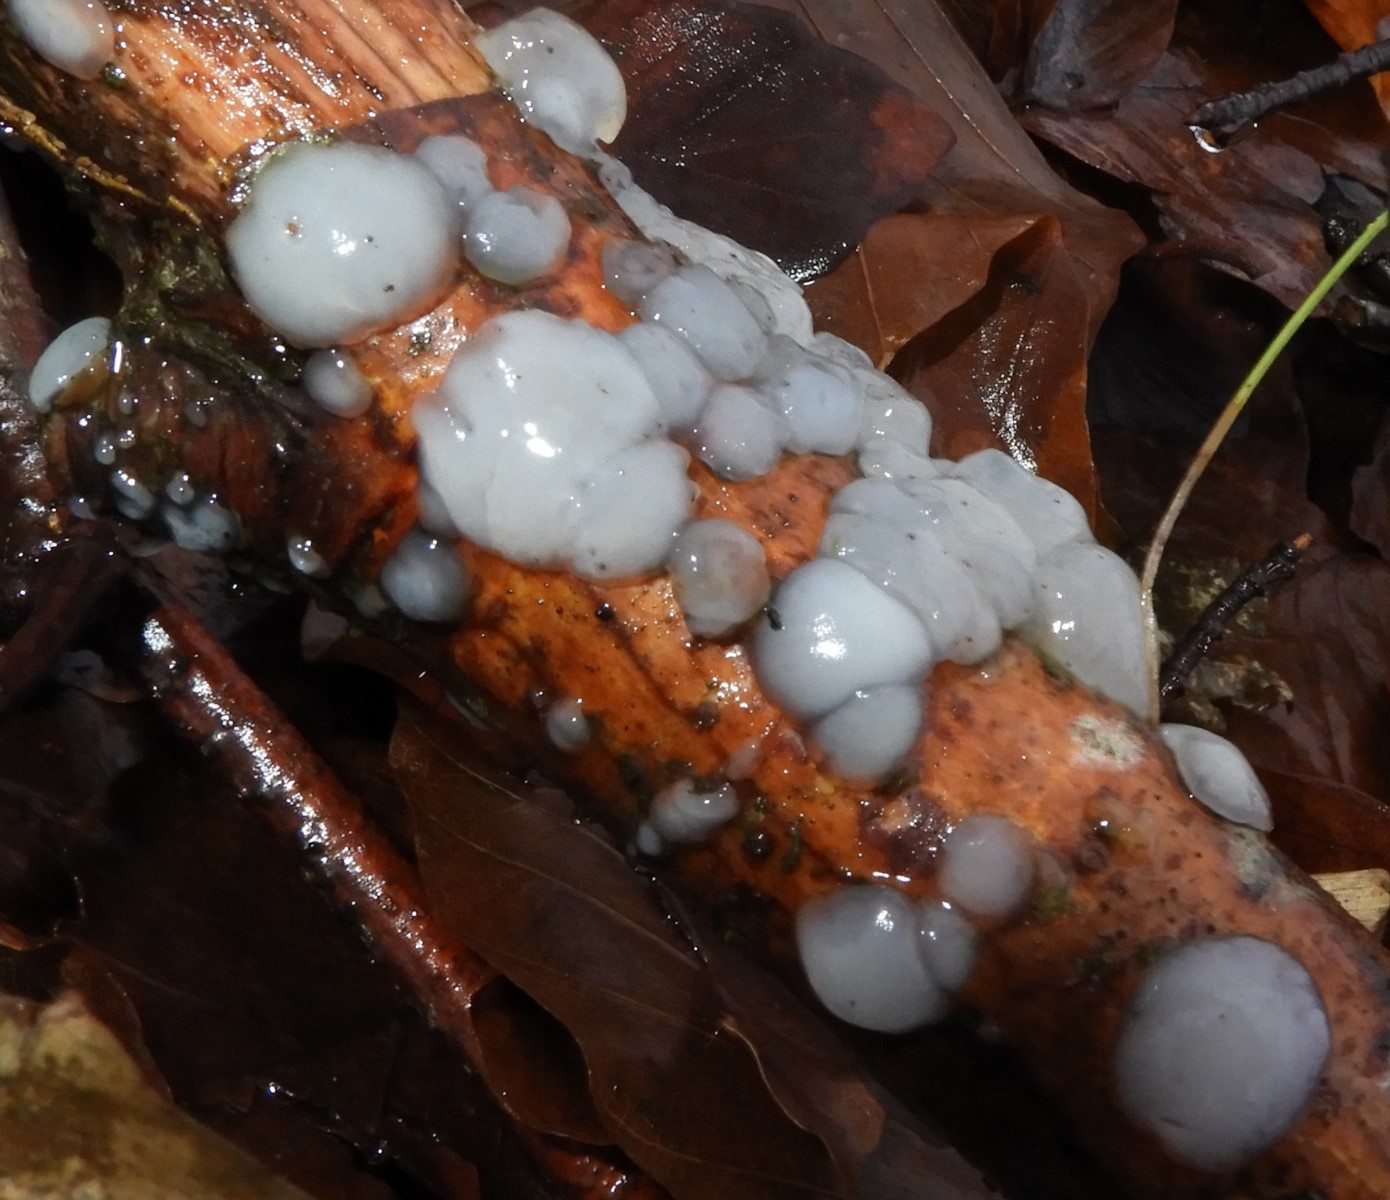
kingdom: Fungi
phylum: Basidiomycota
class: Agaricomycetes
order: Auriculariales
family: Auriculariaceae
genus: Exidia
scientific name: Exidia thuretiana
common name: hvidlig bævretop
